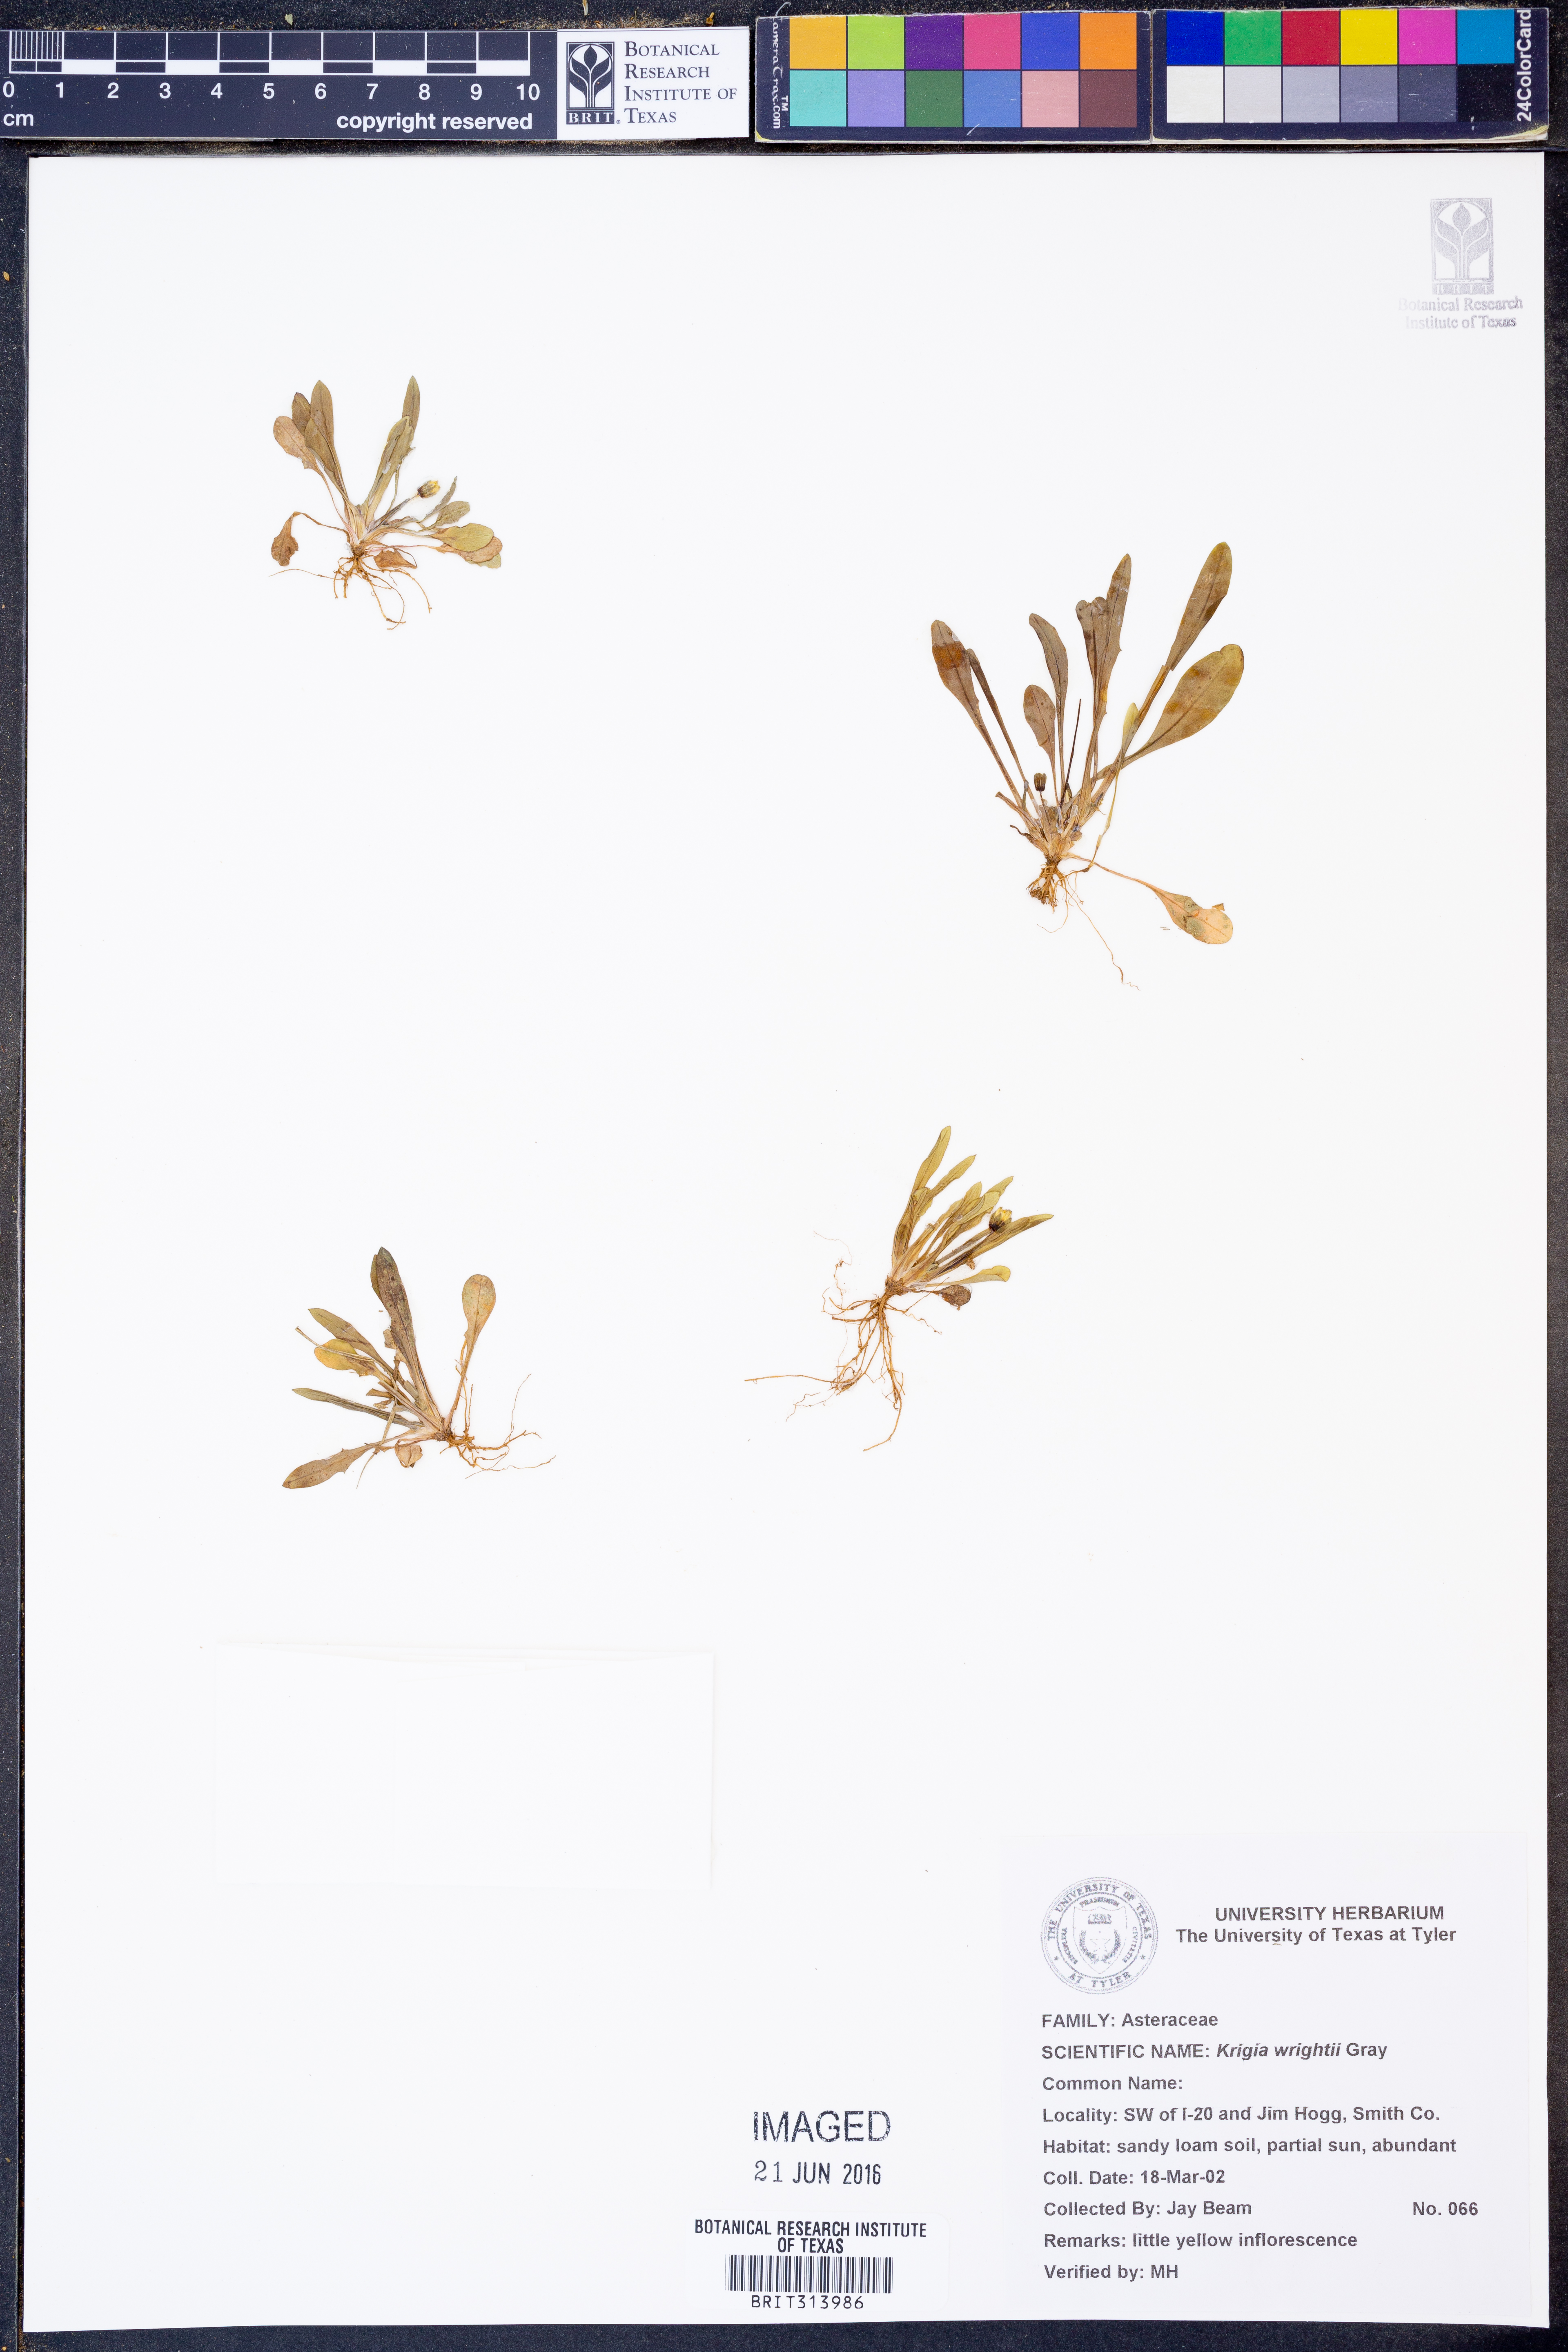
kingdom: Plantae
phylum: Tracheophyta
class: Magnoliopsida
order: Asterales
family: Asteraceae
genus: Krigia
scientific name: Krigia wrightii
